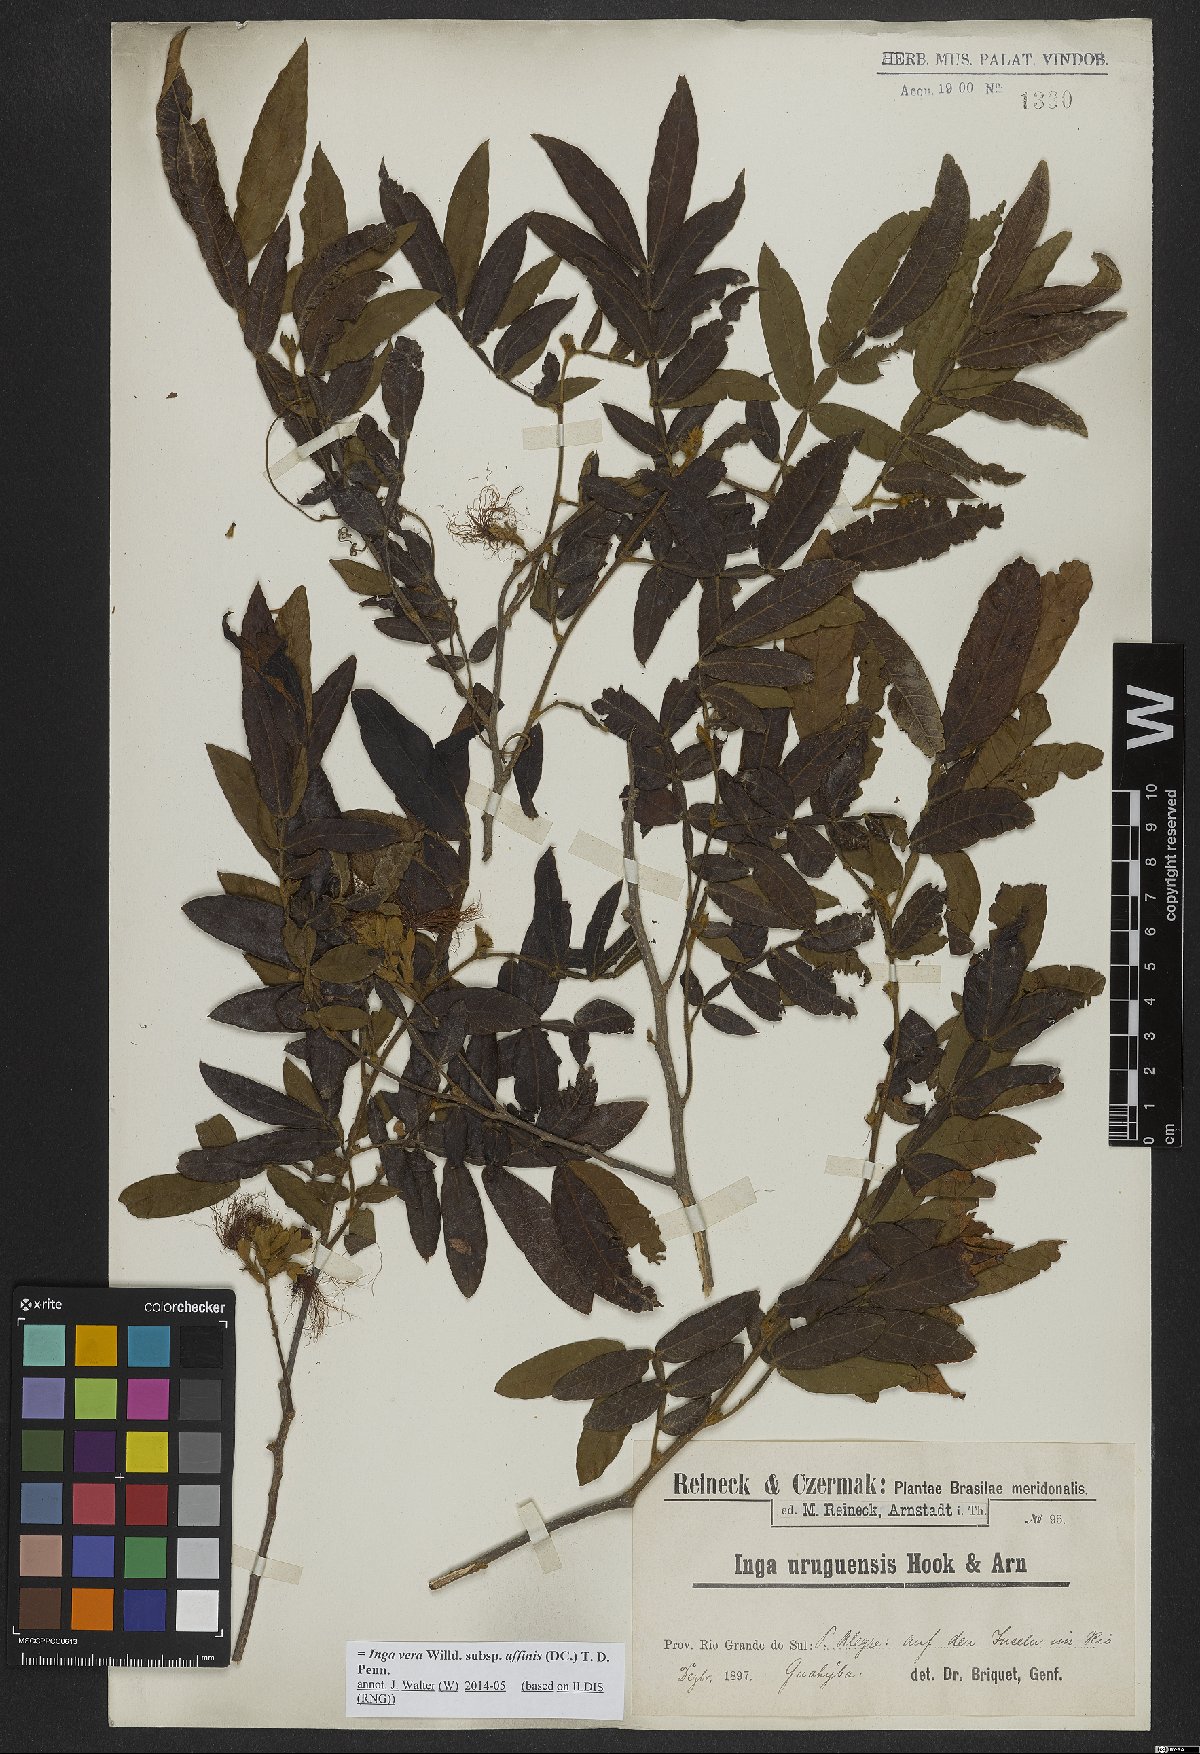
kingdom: Plantae
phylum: Tracheophyta
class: Magnoliopsida
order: Fabales
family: Fabaceae
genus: Inga
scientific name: Inga affinis
